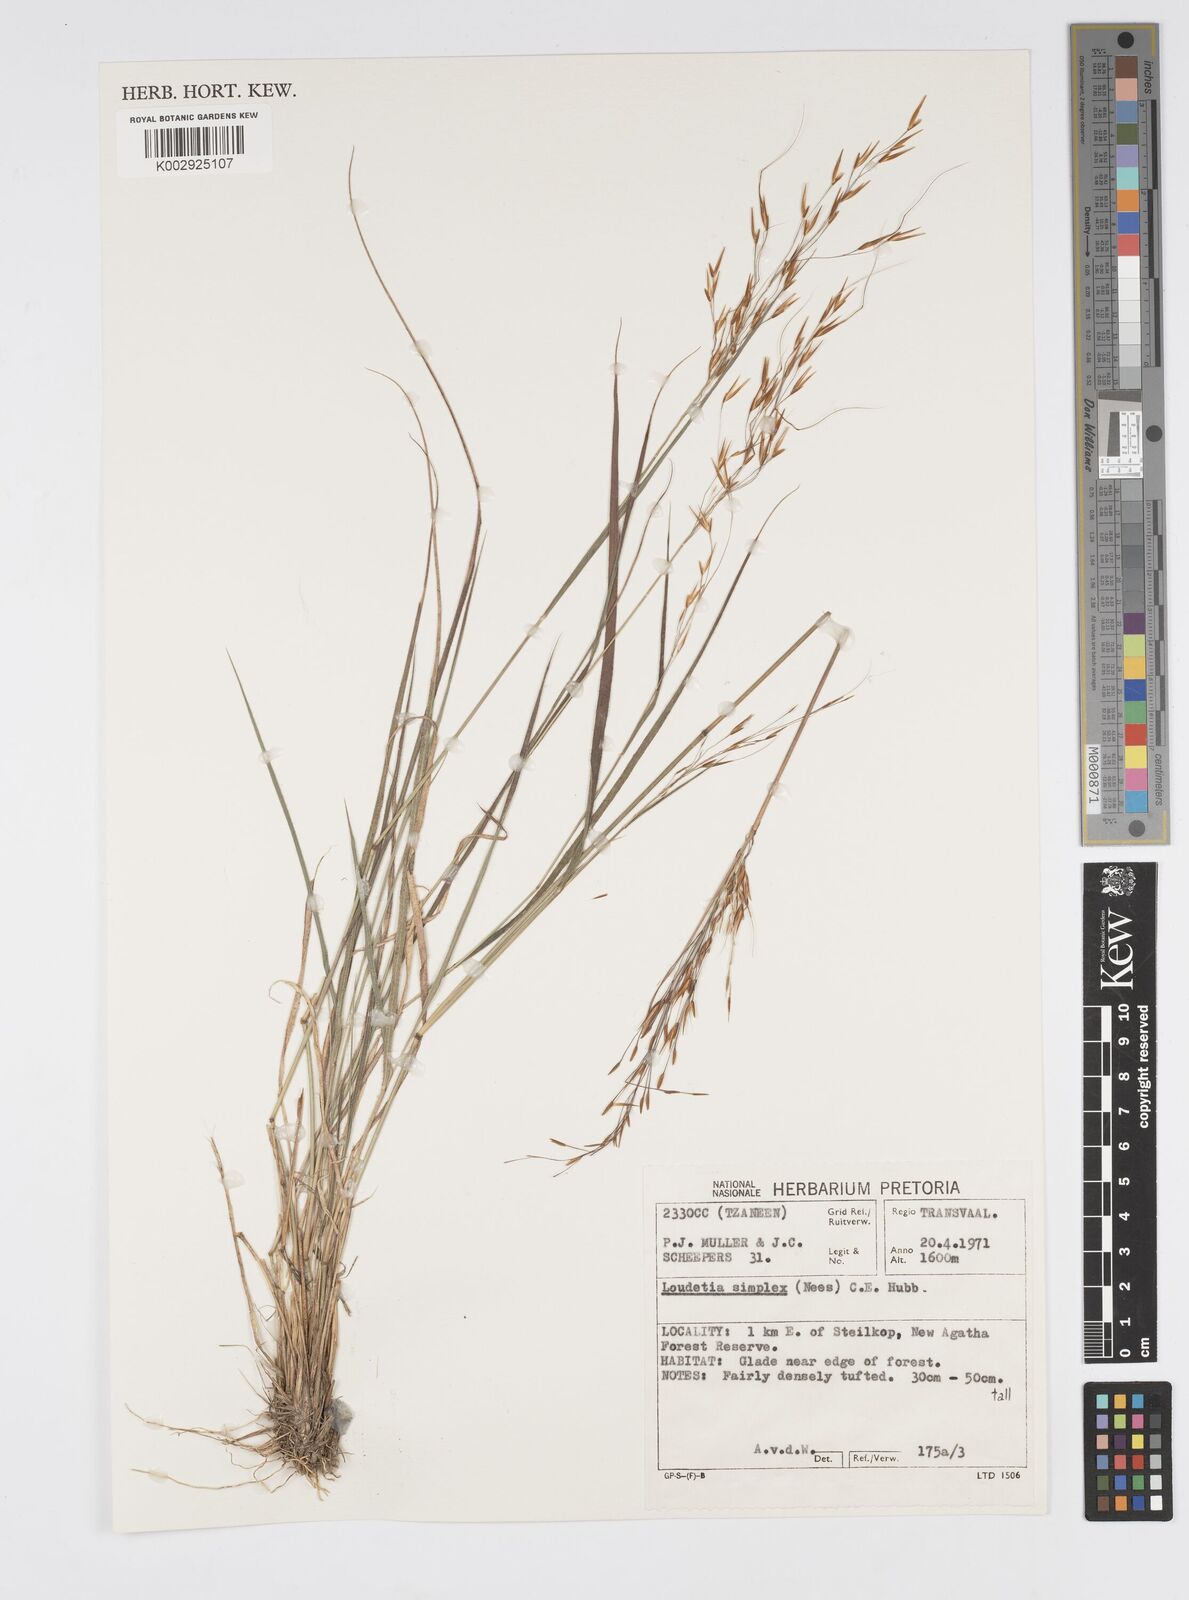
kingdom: Plantae
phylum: Tracheophyta
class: Liliopsida
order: Poales
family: Poaceae
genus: Loudetia
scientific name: Loudetia simplex
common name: Common russet grass
